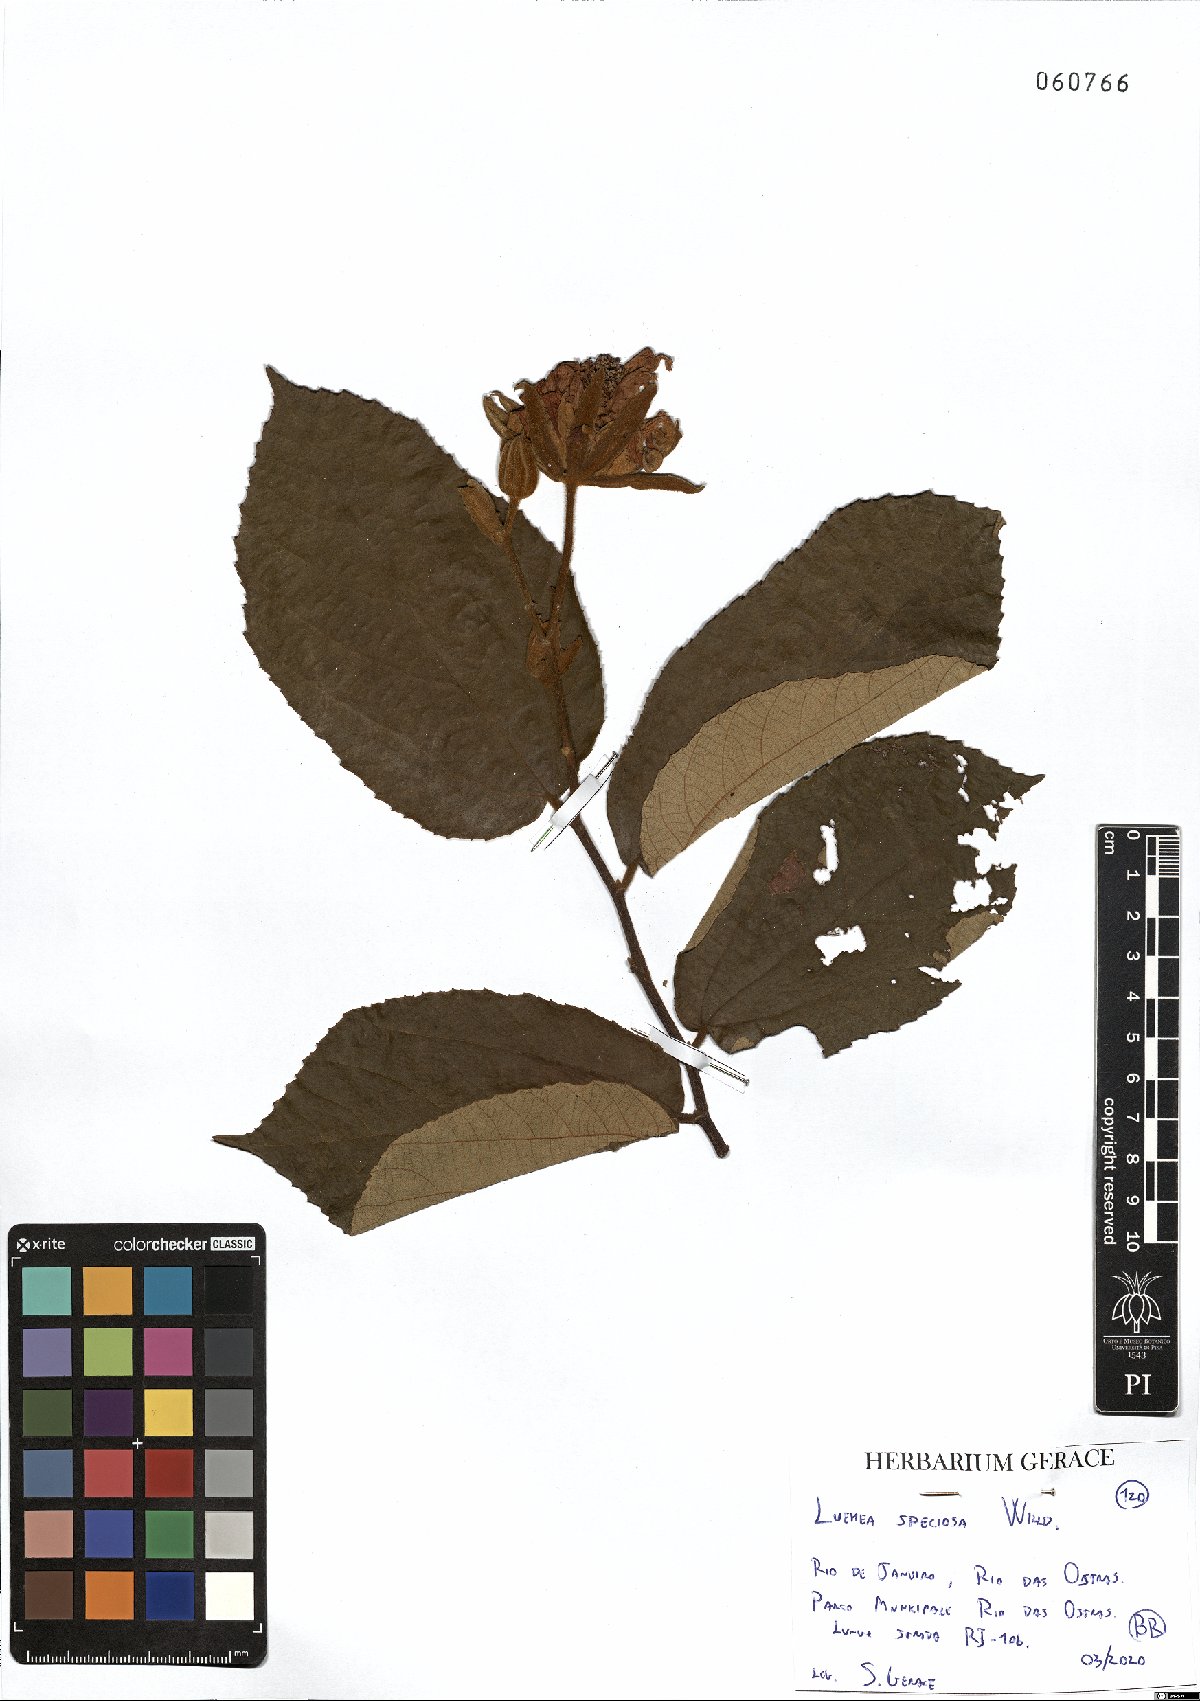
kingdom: Plantae
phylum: Tracheophyta
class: Magnoliopsida
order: Malvales
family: Malvaceae
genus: Luehea
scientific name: Luehea speciosa
